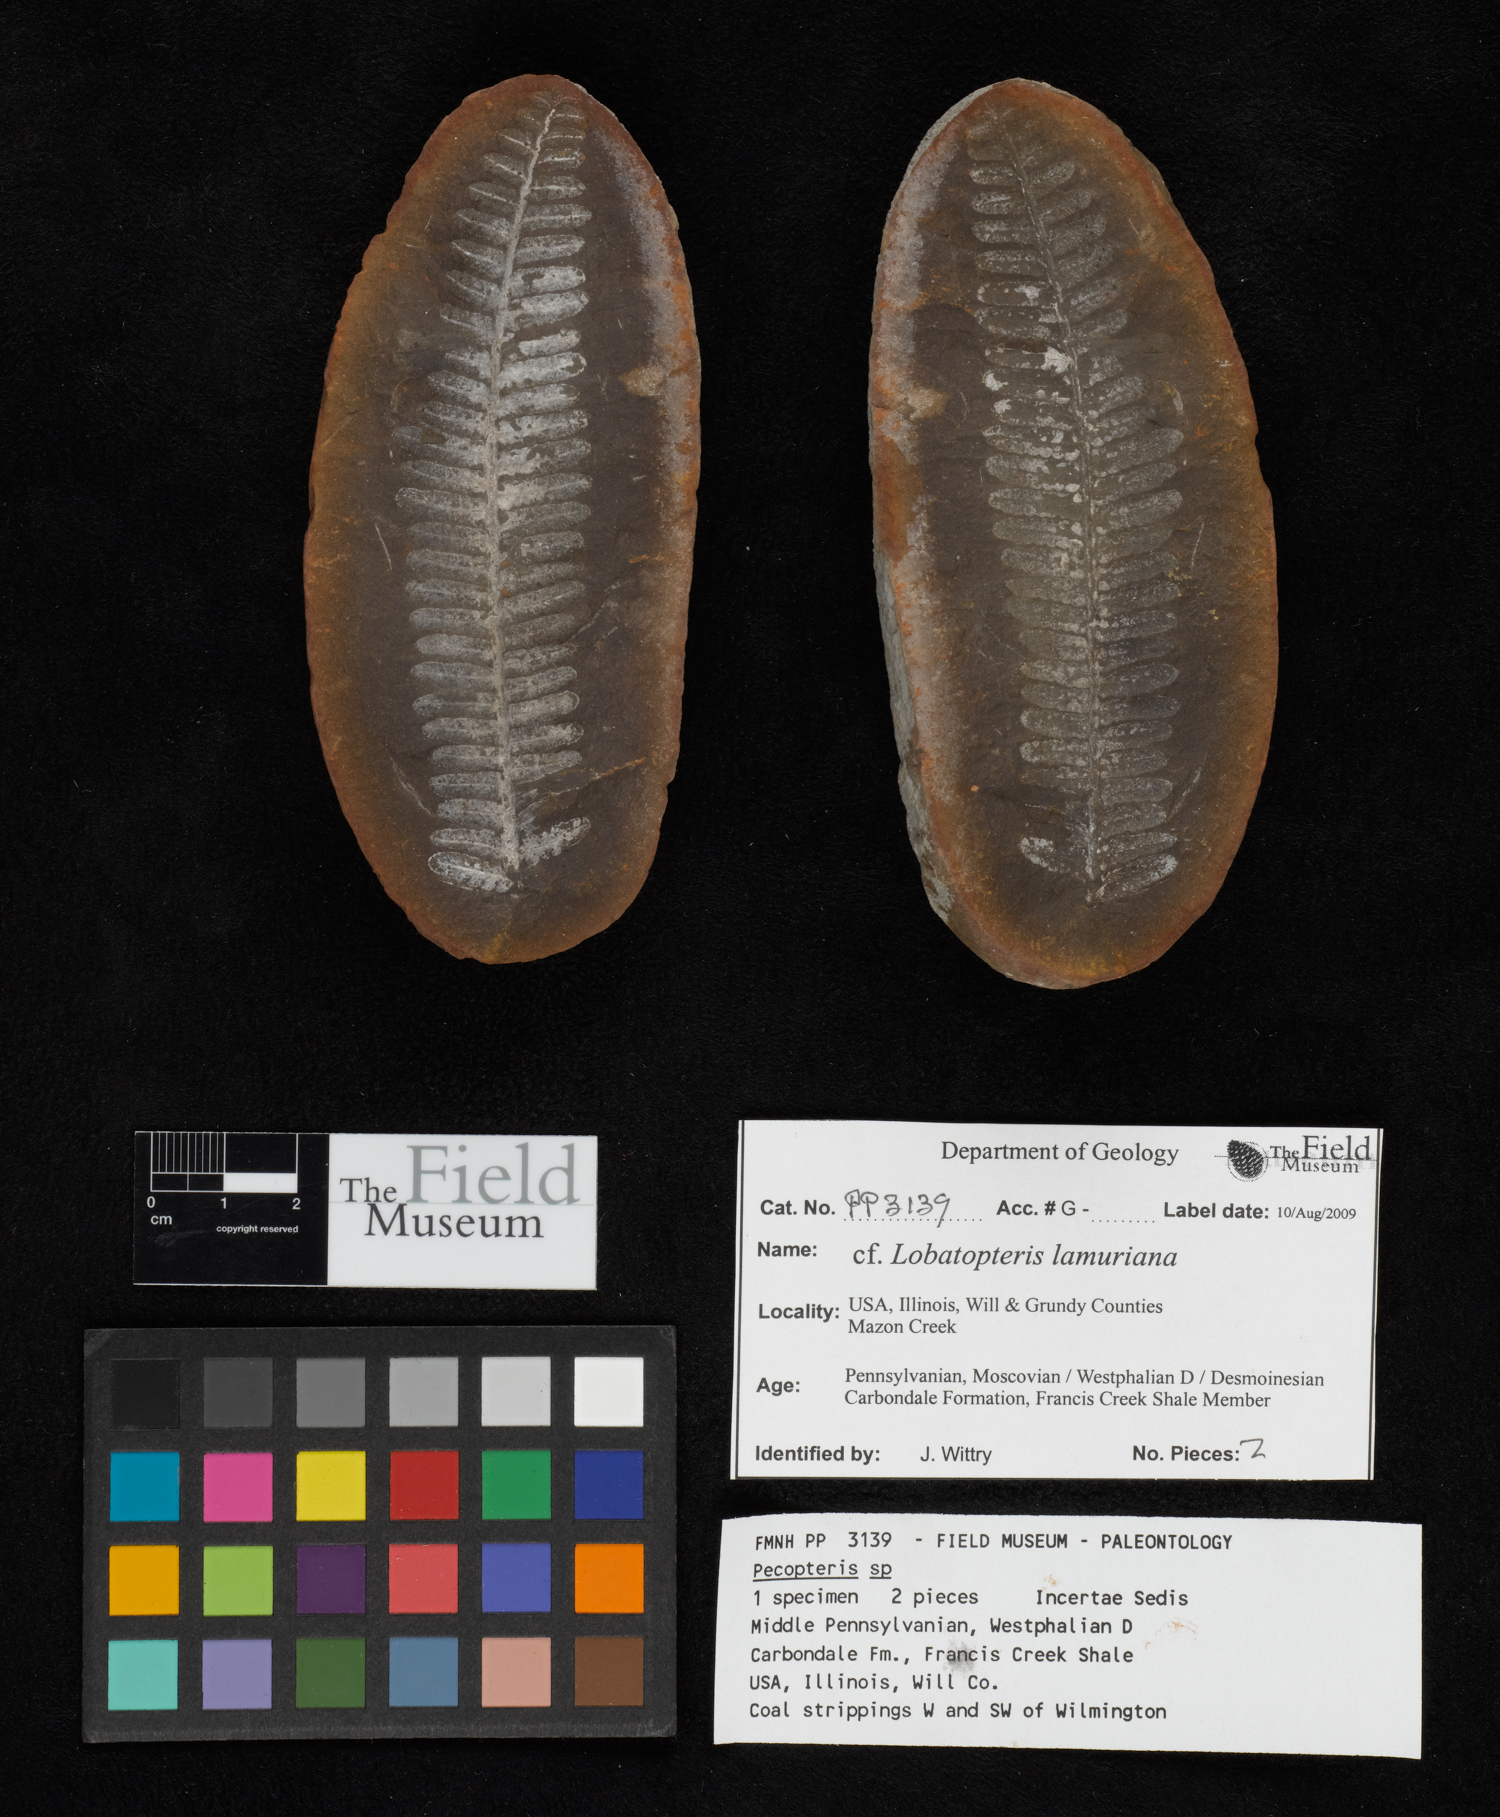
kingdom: Plantae
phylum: Tracheophyta
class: Polypodiopsida
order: Marattiales
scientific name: Marattiales
